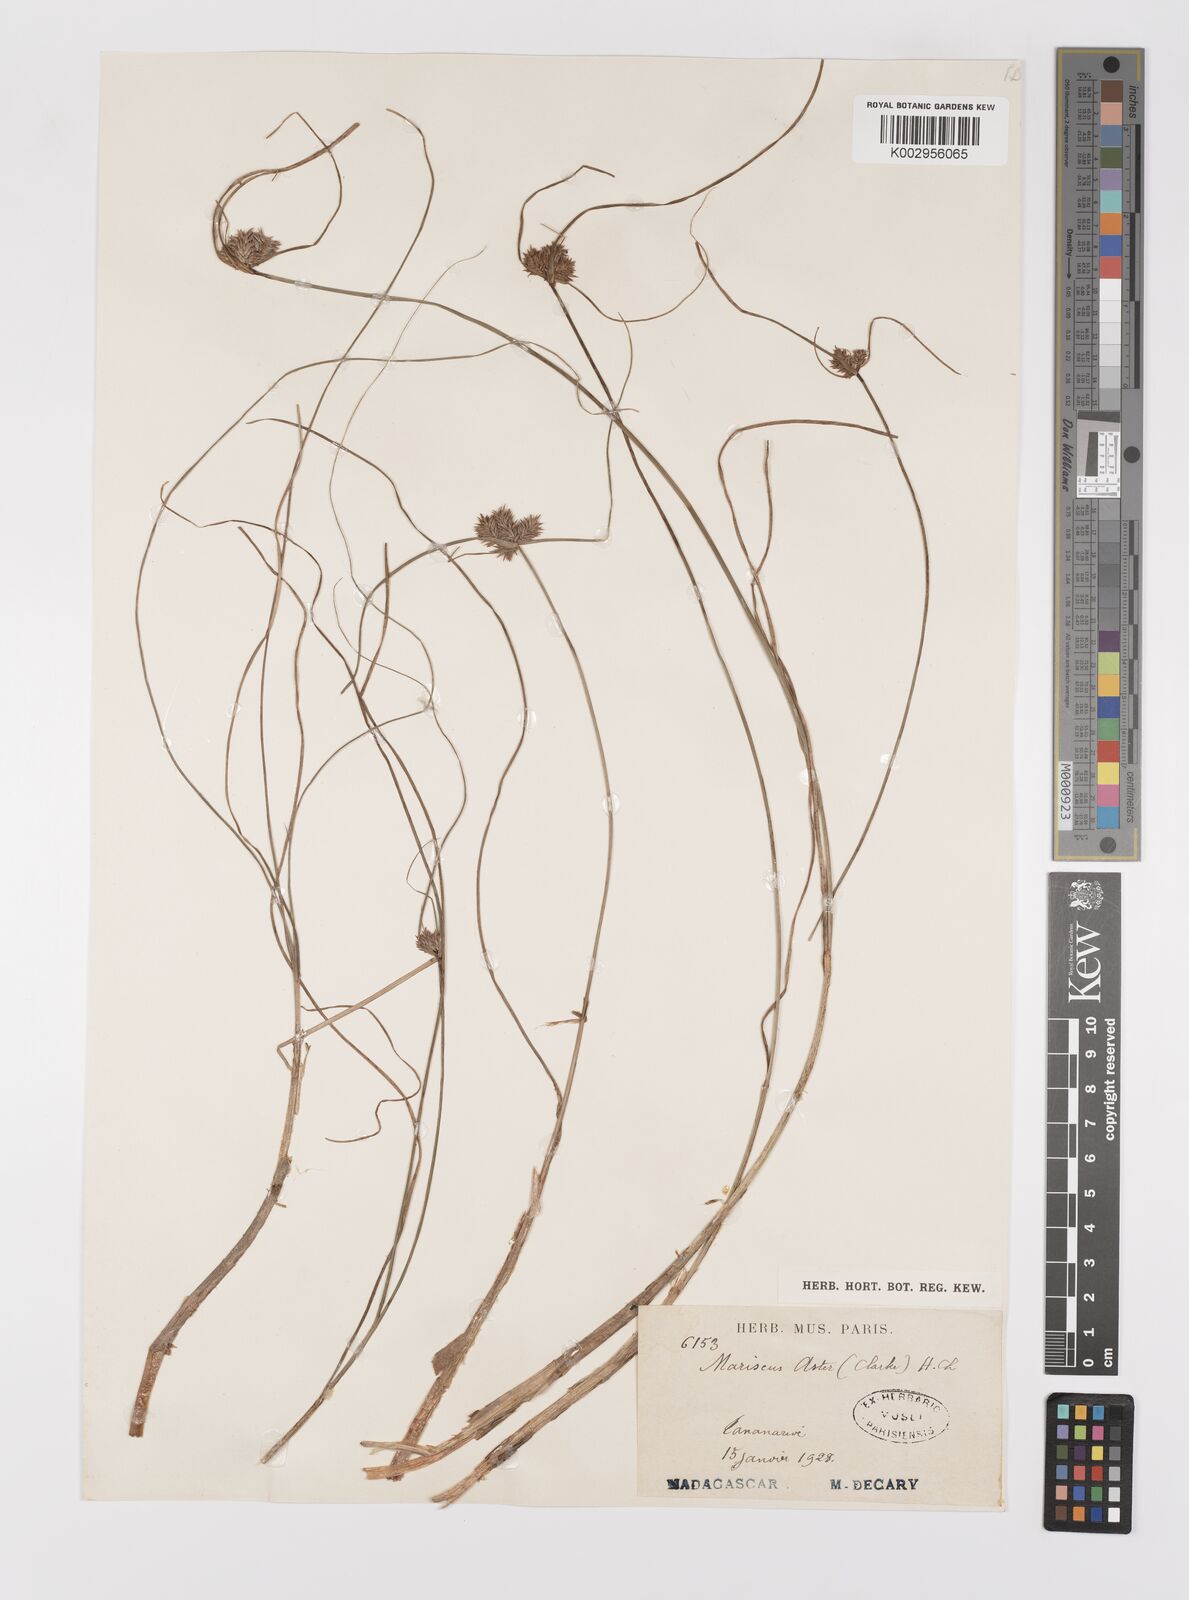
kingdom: Plantae
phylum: Tracheophyta
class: Liliopsida
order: Poales
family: Cyperaceae
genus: Cyperus
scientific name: Cyperus aster
